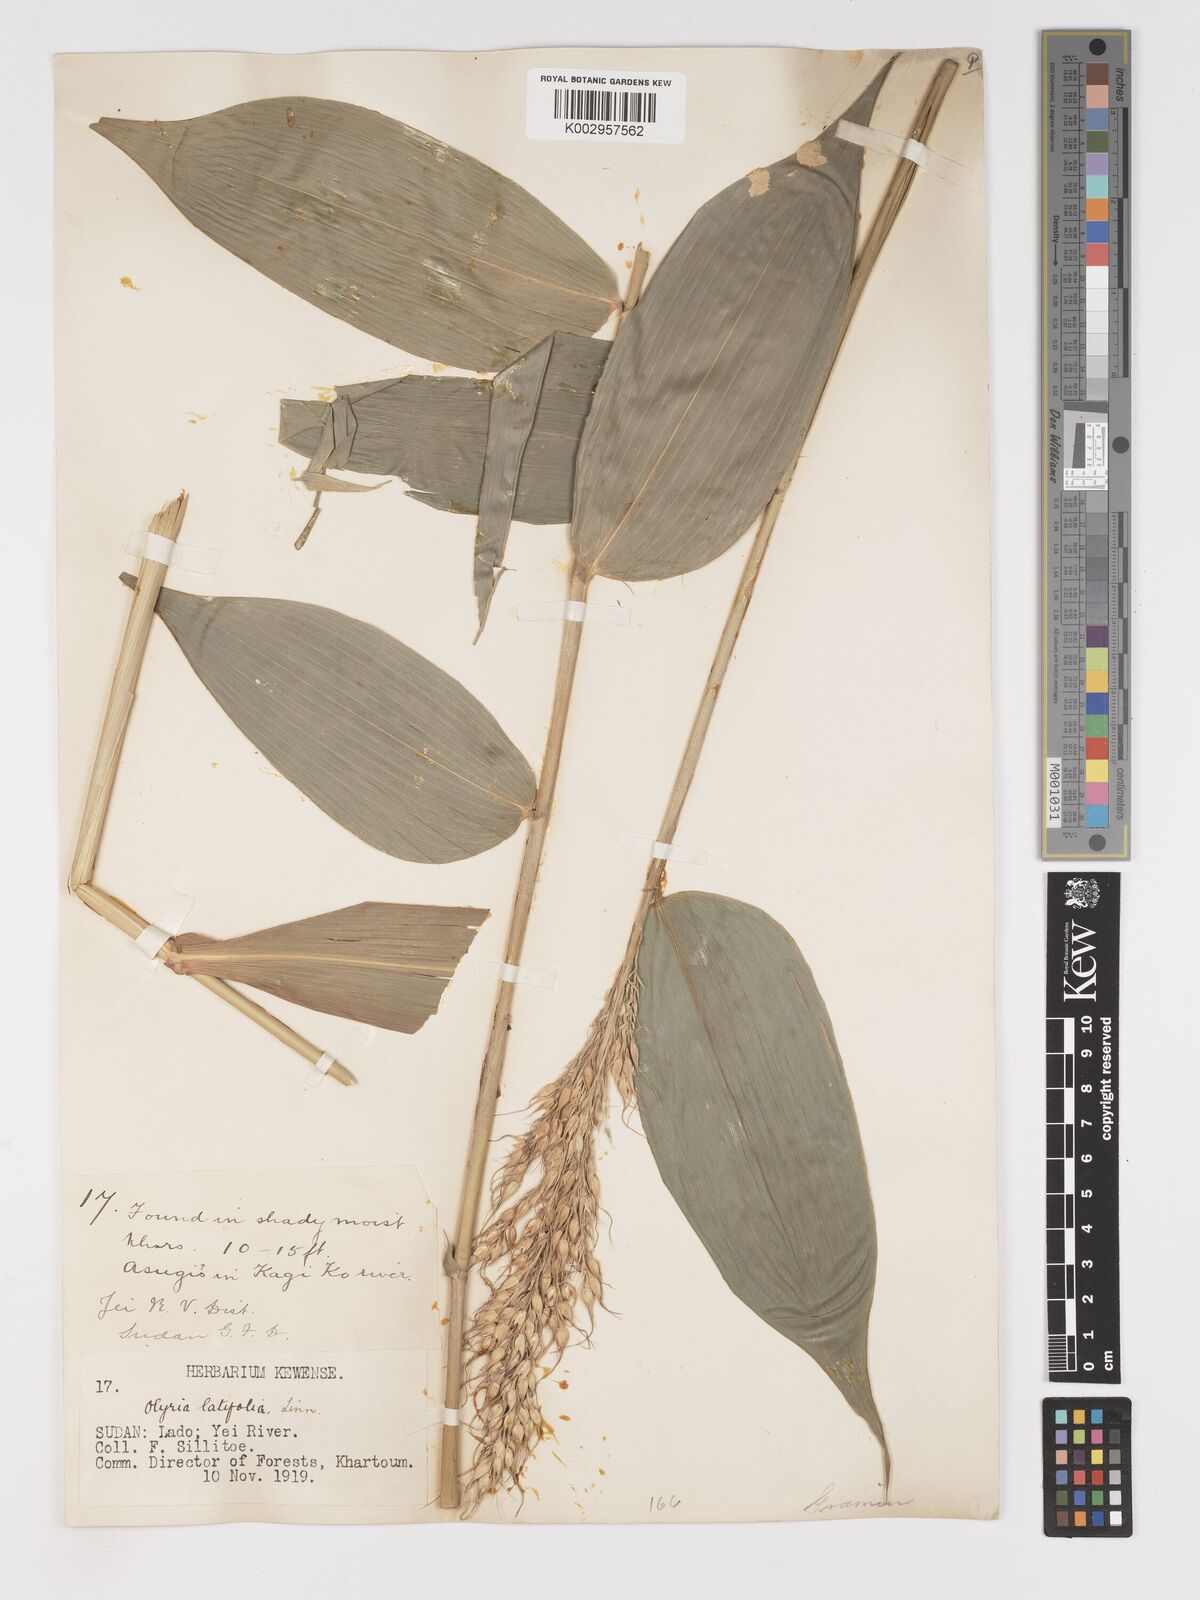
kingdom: Plantae
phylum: Tracheophyta
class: Liliopsida
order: Poales
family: Poaceae
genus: Olyra
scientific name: Olyra latifolia
